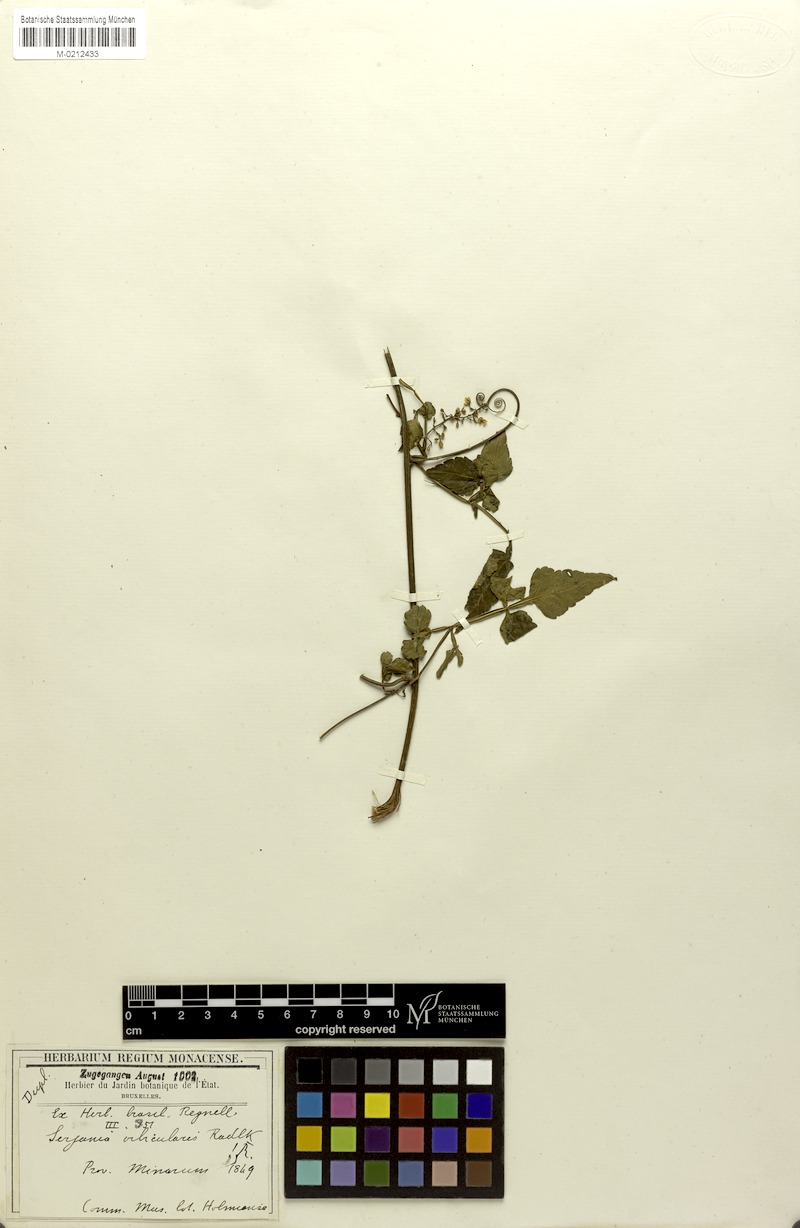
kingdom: Plantae
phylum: Tracheophyta
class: Magnoliopsida
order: Sapindales
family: Sapindaceae
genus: Serjania
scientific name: Serjania orbicularis
